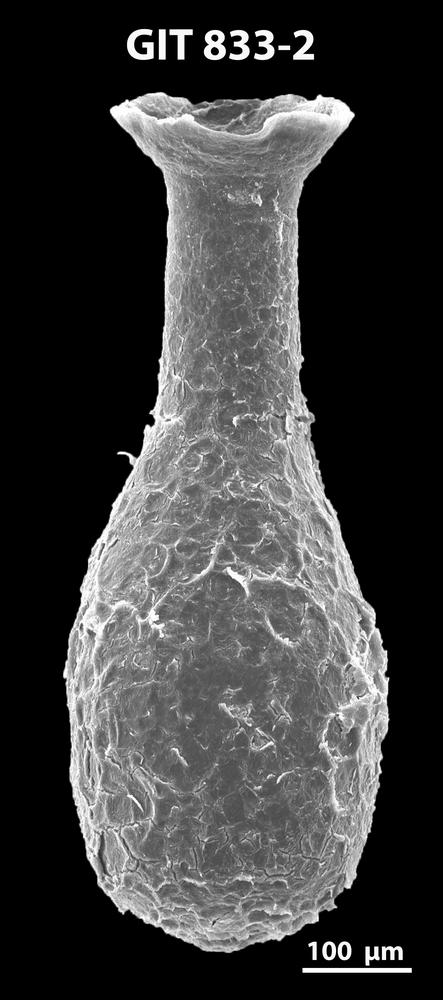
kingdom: Animalia
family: Lagenochitinidae
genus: Lagenochitina
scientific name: Lagenochitina megaesthonica
